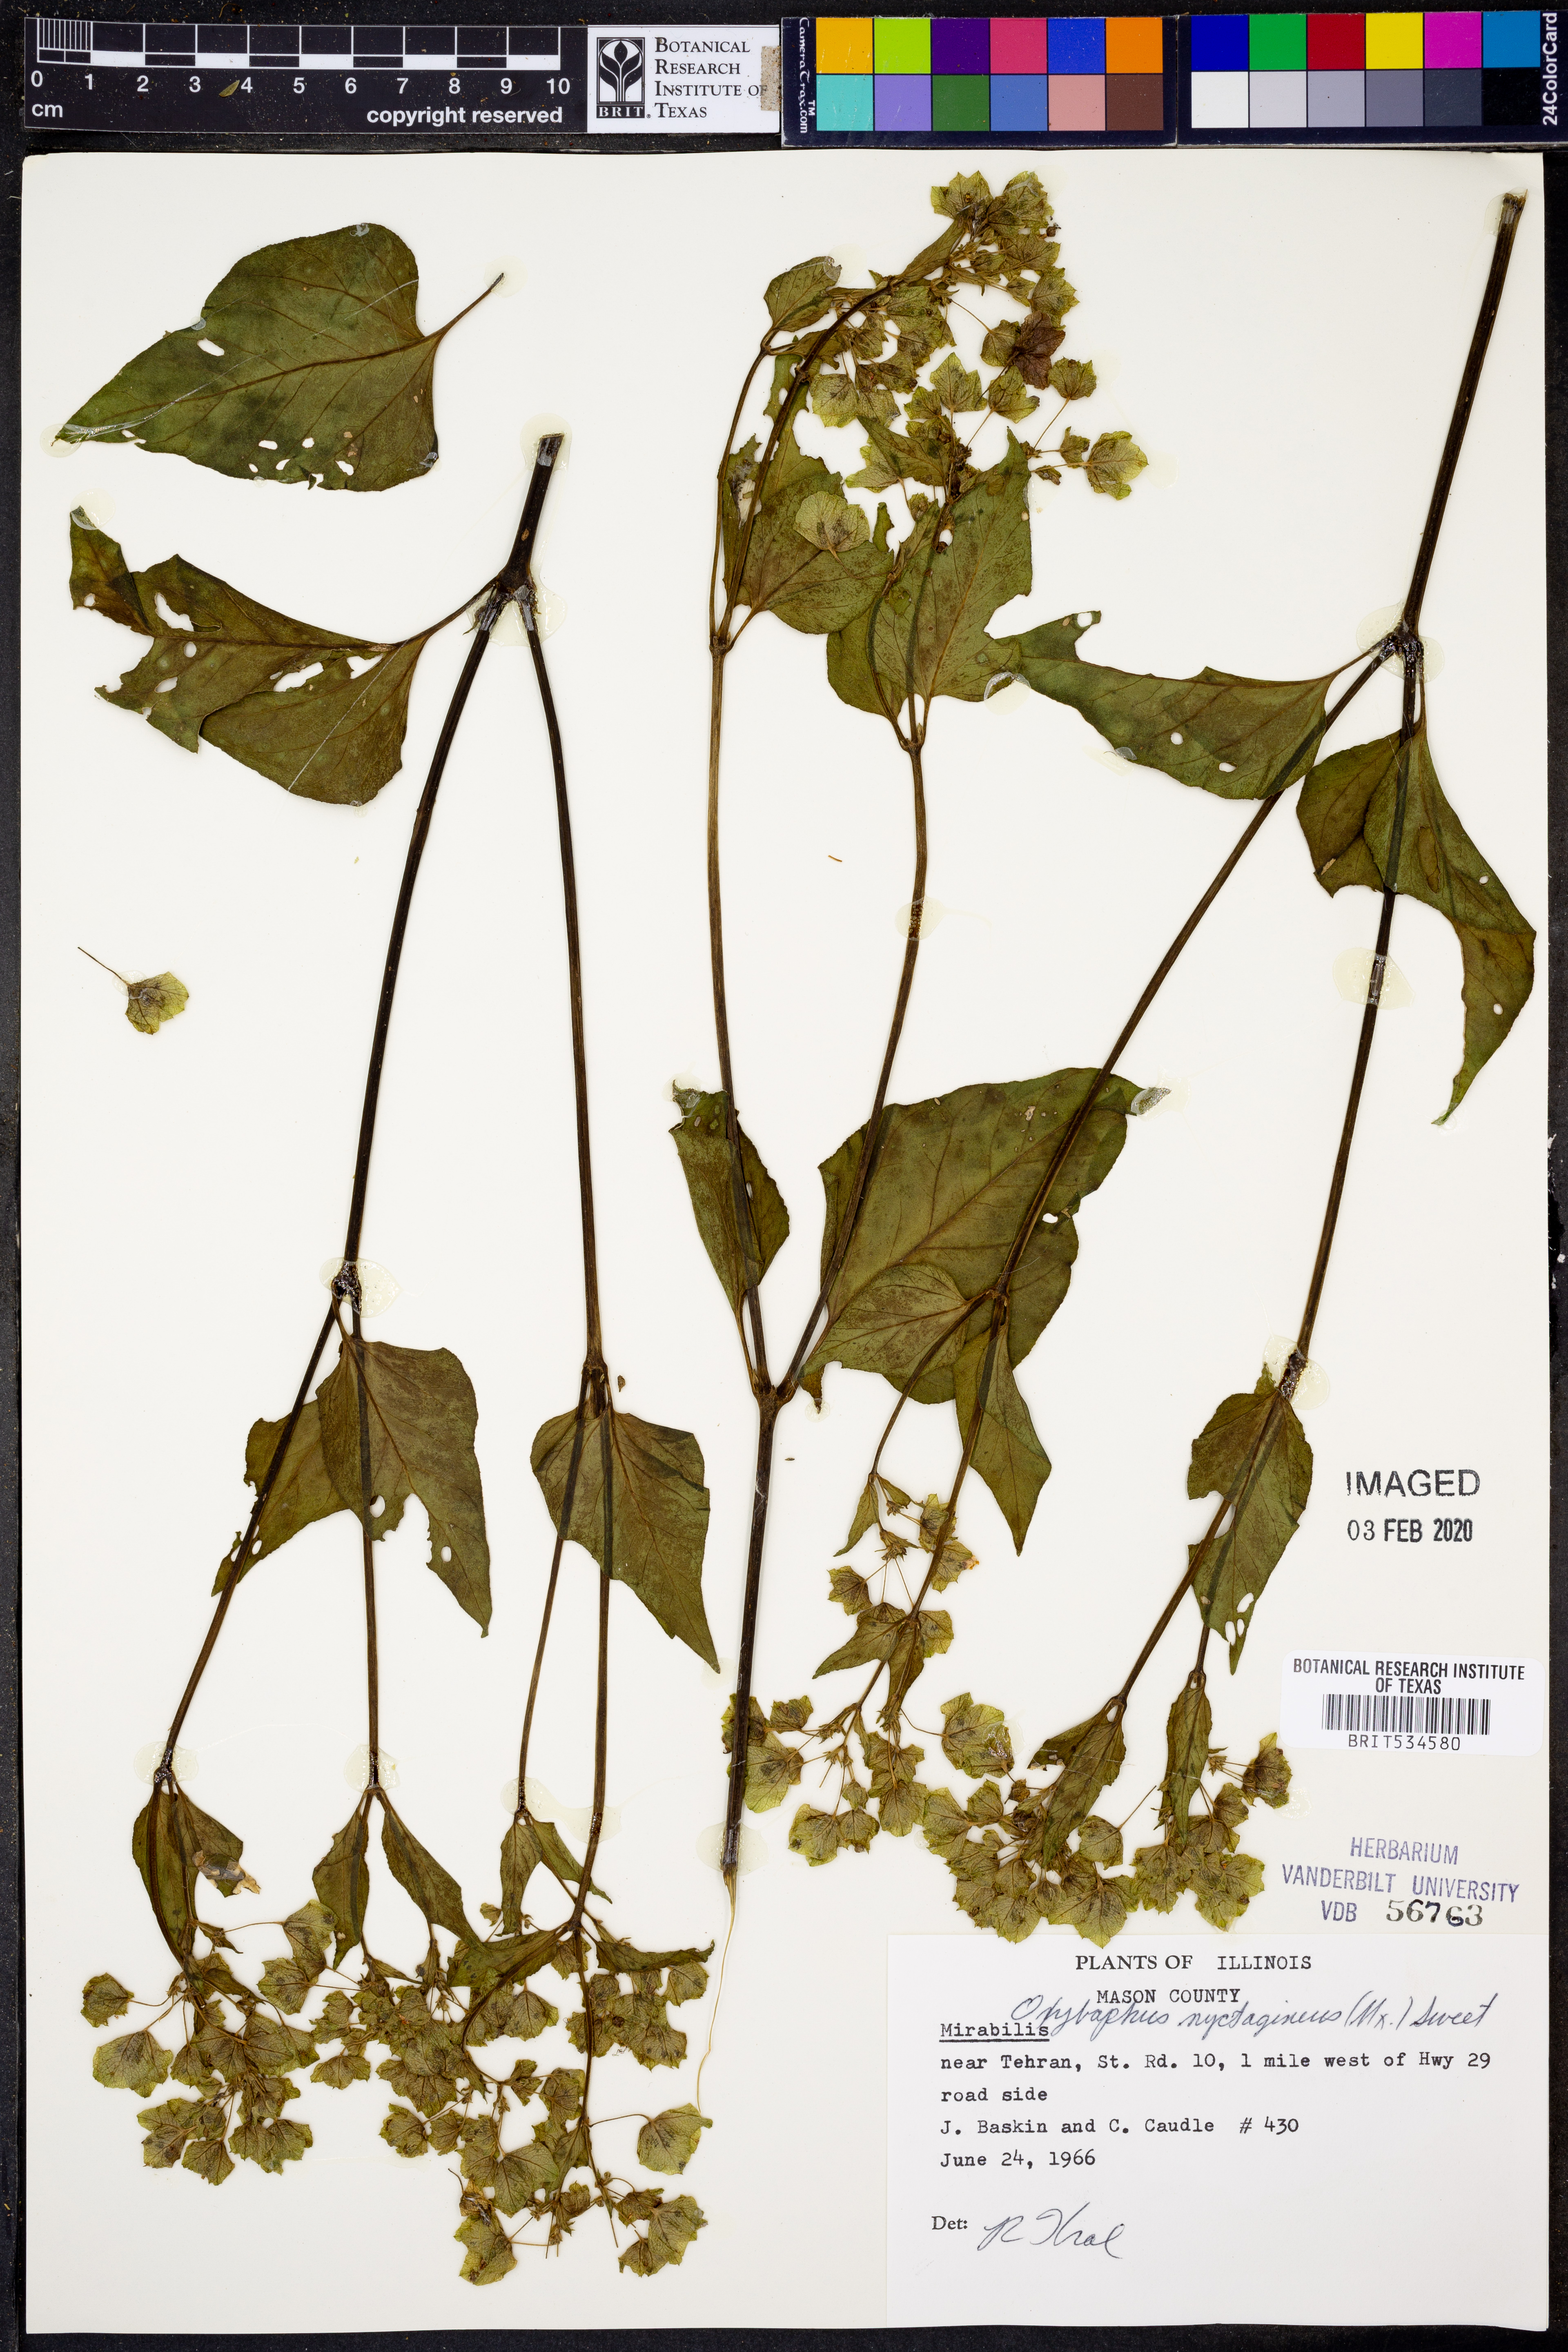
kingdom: Plantae
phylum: Tracheophyta
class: Magnoliopsida
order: Caryophyllales
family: Nyctaginaceae
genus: Mirabilis
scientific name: Mirabilis nyctaginea
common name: Umbrella wort
